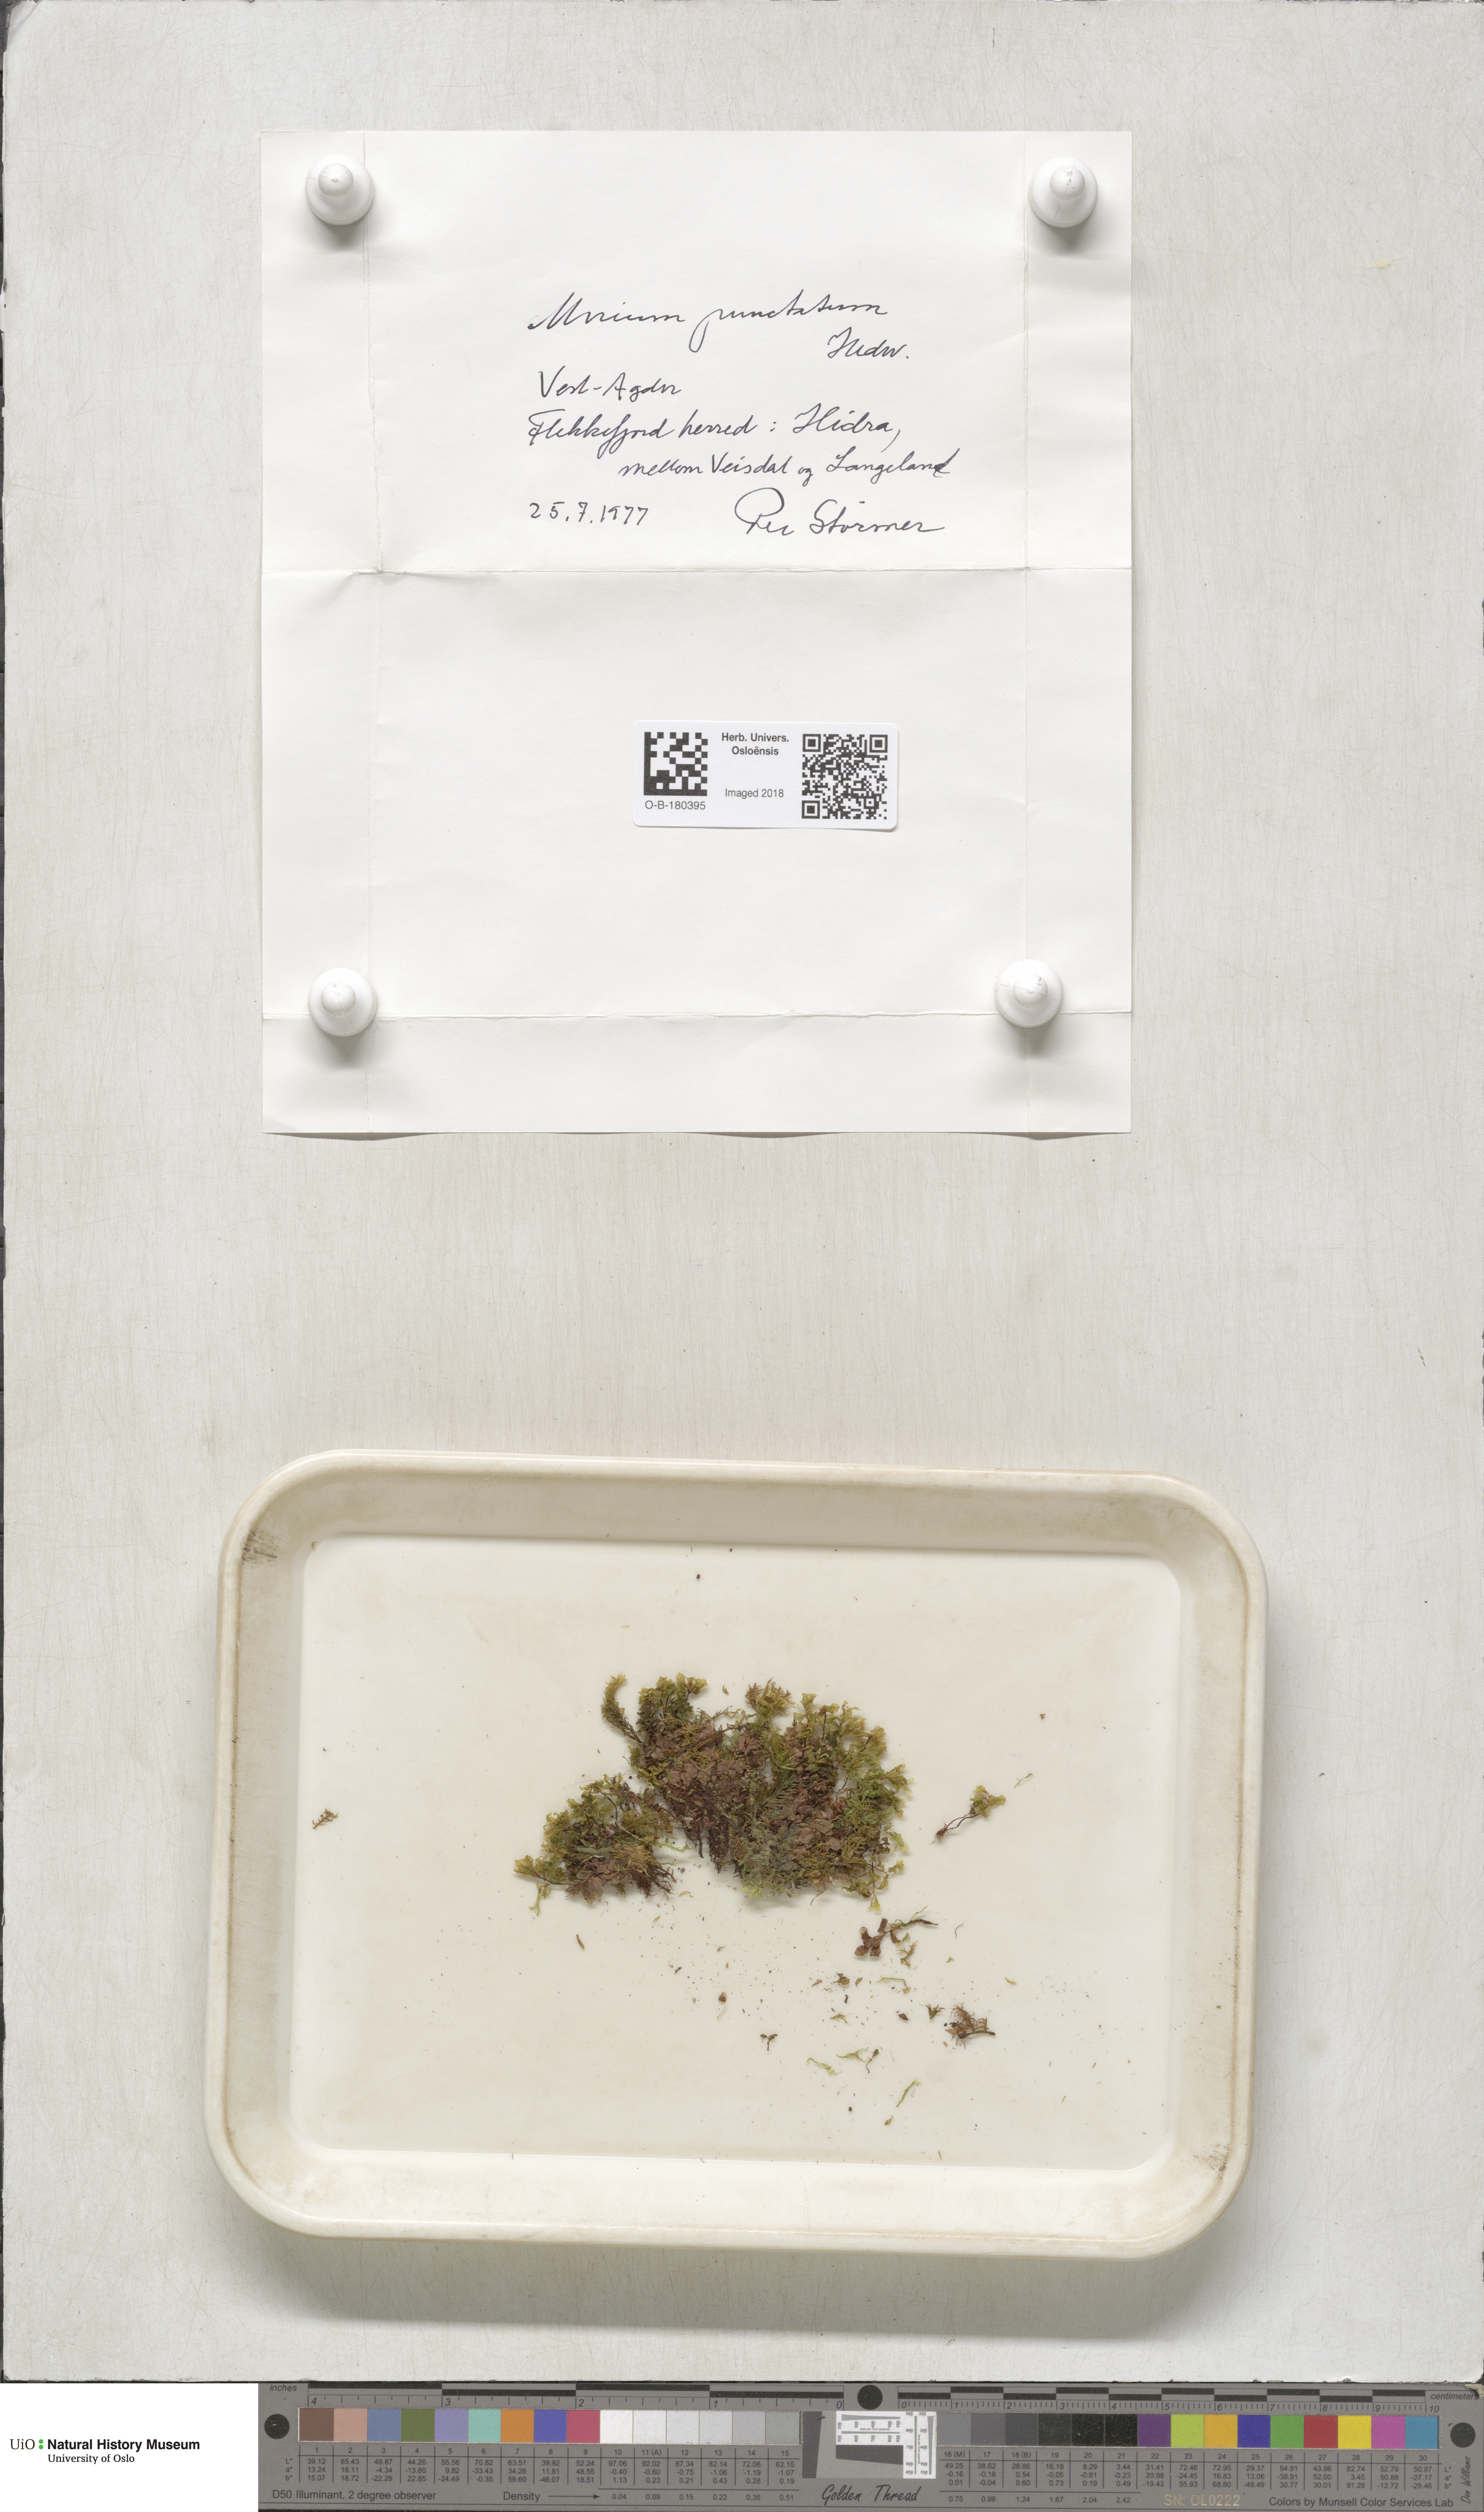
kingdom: Plantae
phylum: Bryophyta
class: Bryopsida
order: Bryales
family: Mniaceae
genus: Rhizomnium
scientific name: Rhizomnium punctatum
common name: Dotted leafy moss
